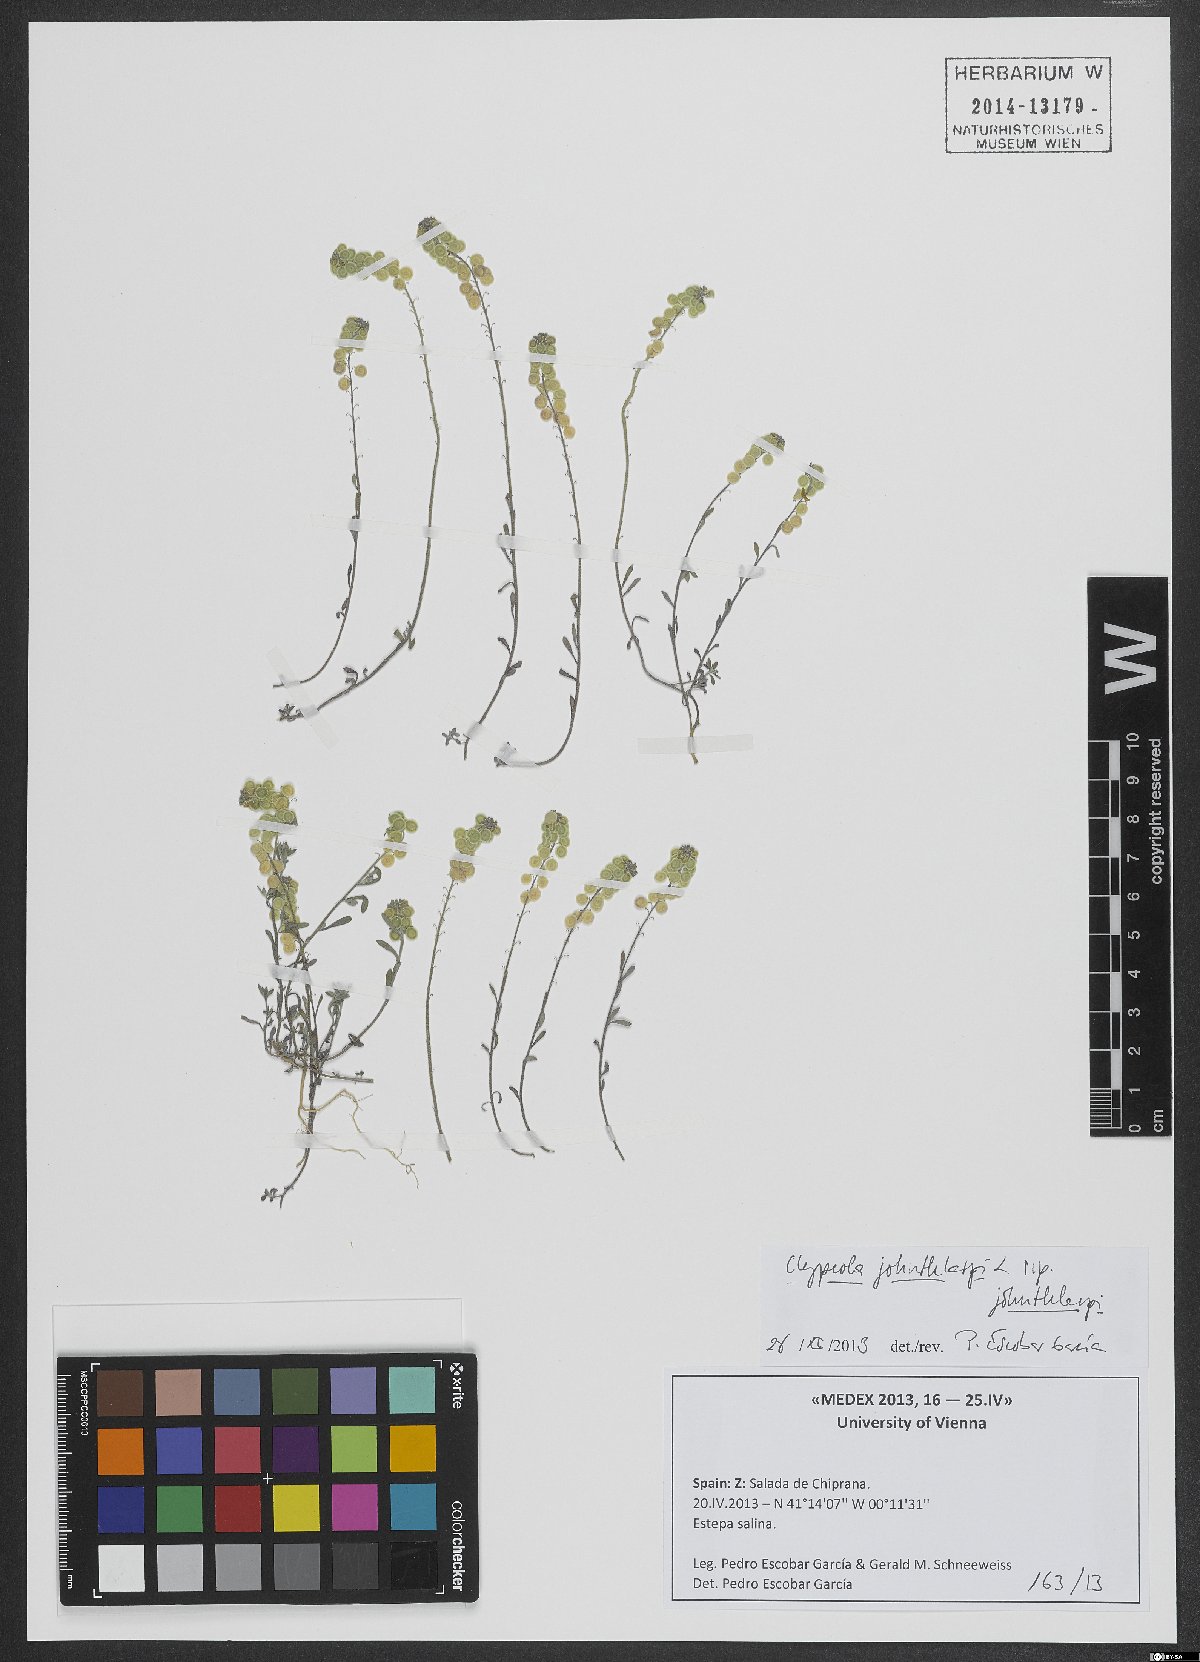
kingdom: Plantae
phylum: Tracheophyta
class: Magnoliopsida
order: Brassicales
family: Brassicaceae
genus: Clypeola
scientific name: Clypeola jonthlaspi
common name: Disk cress
